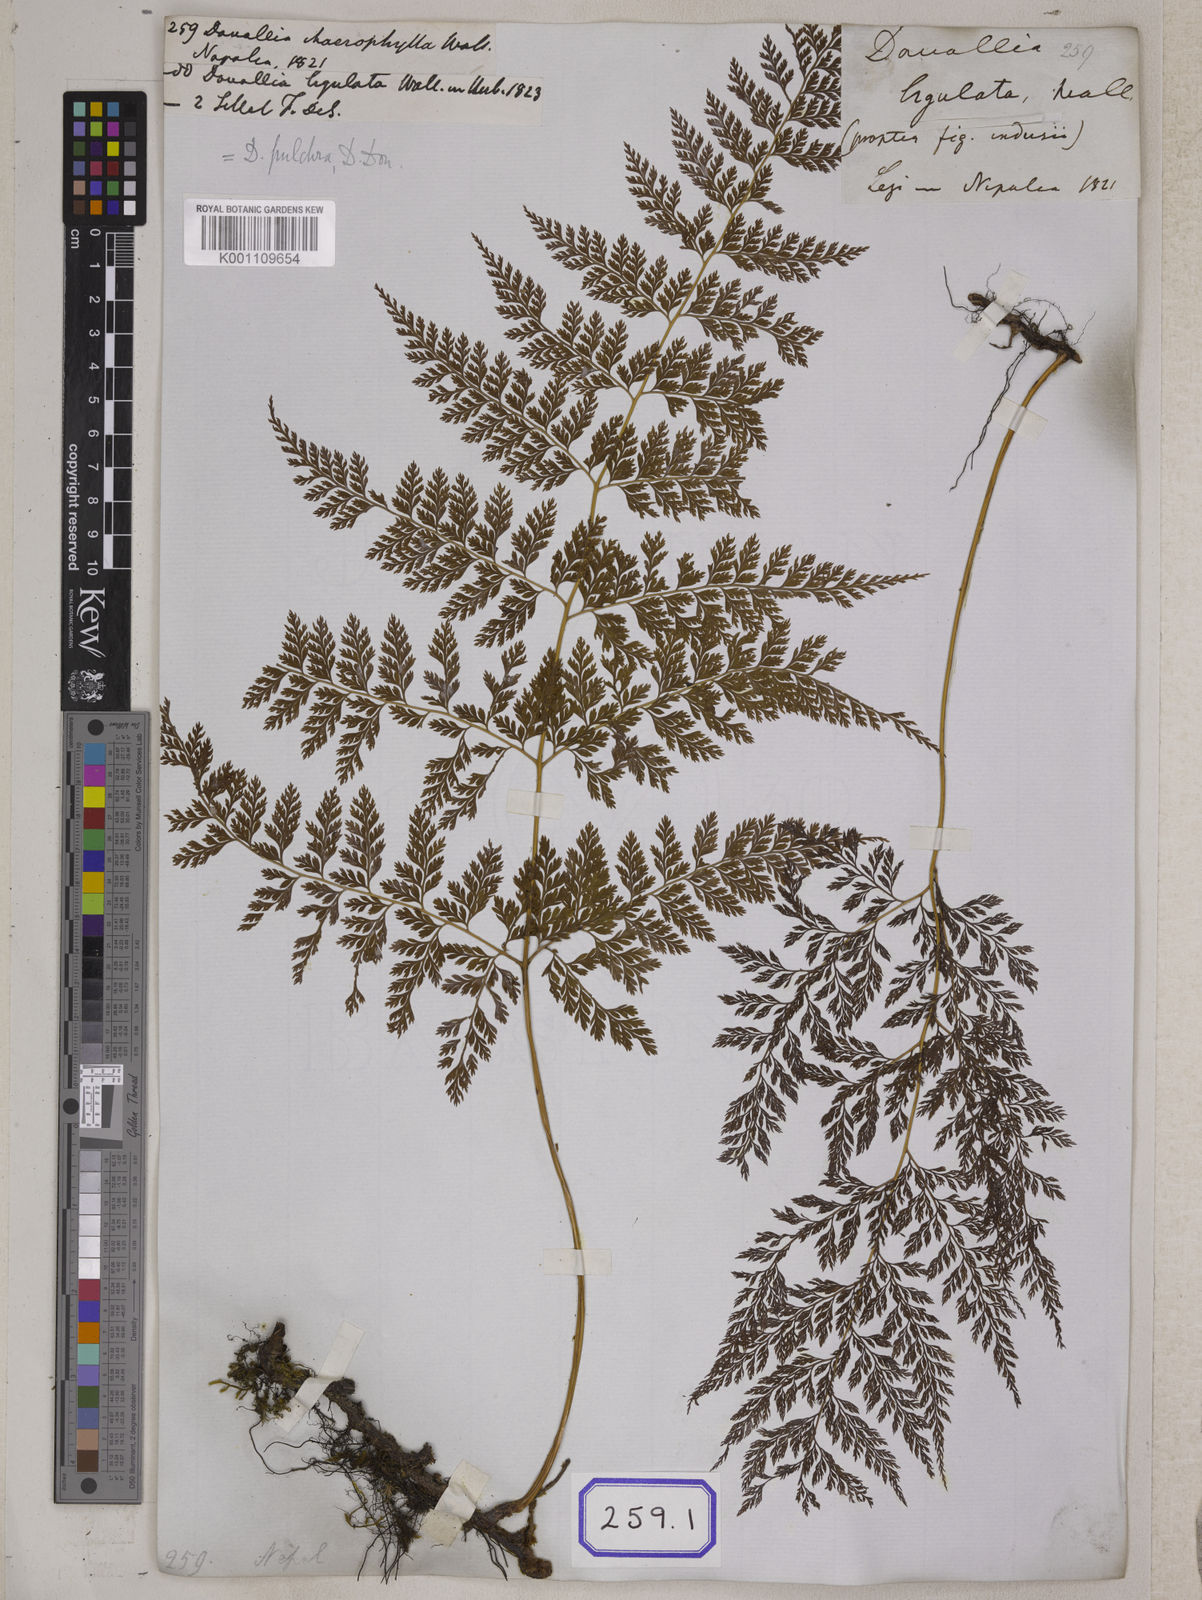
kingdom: Plantae
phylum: Tracheophyta
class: Polypodiopsida
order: Polypodiales
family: Davalliaceae
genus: Davallodes
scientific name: Davallodes pulchra
